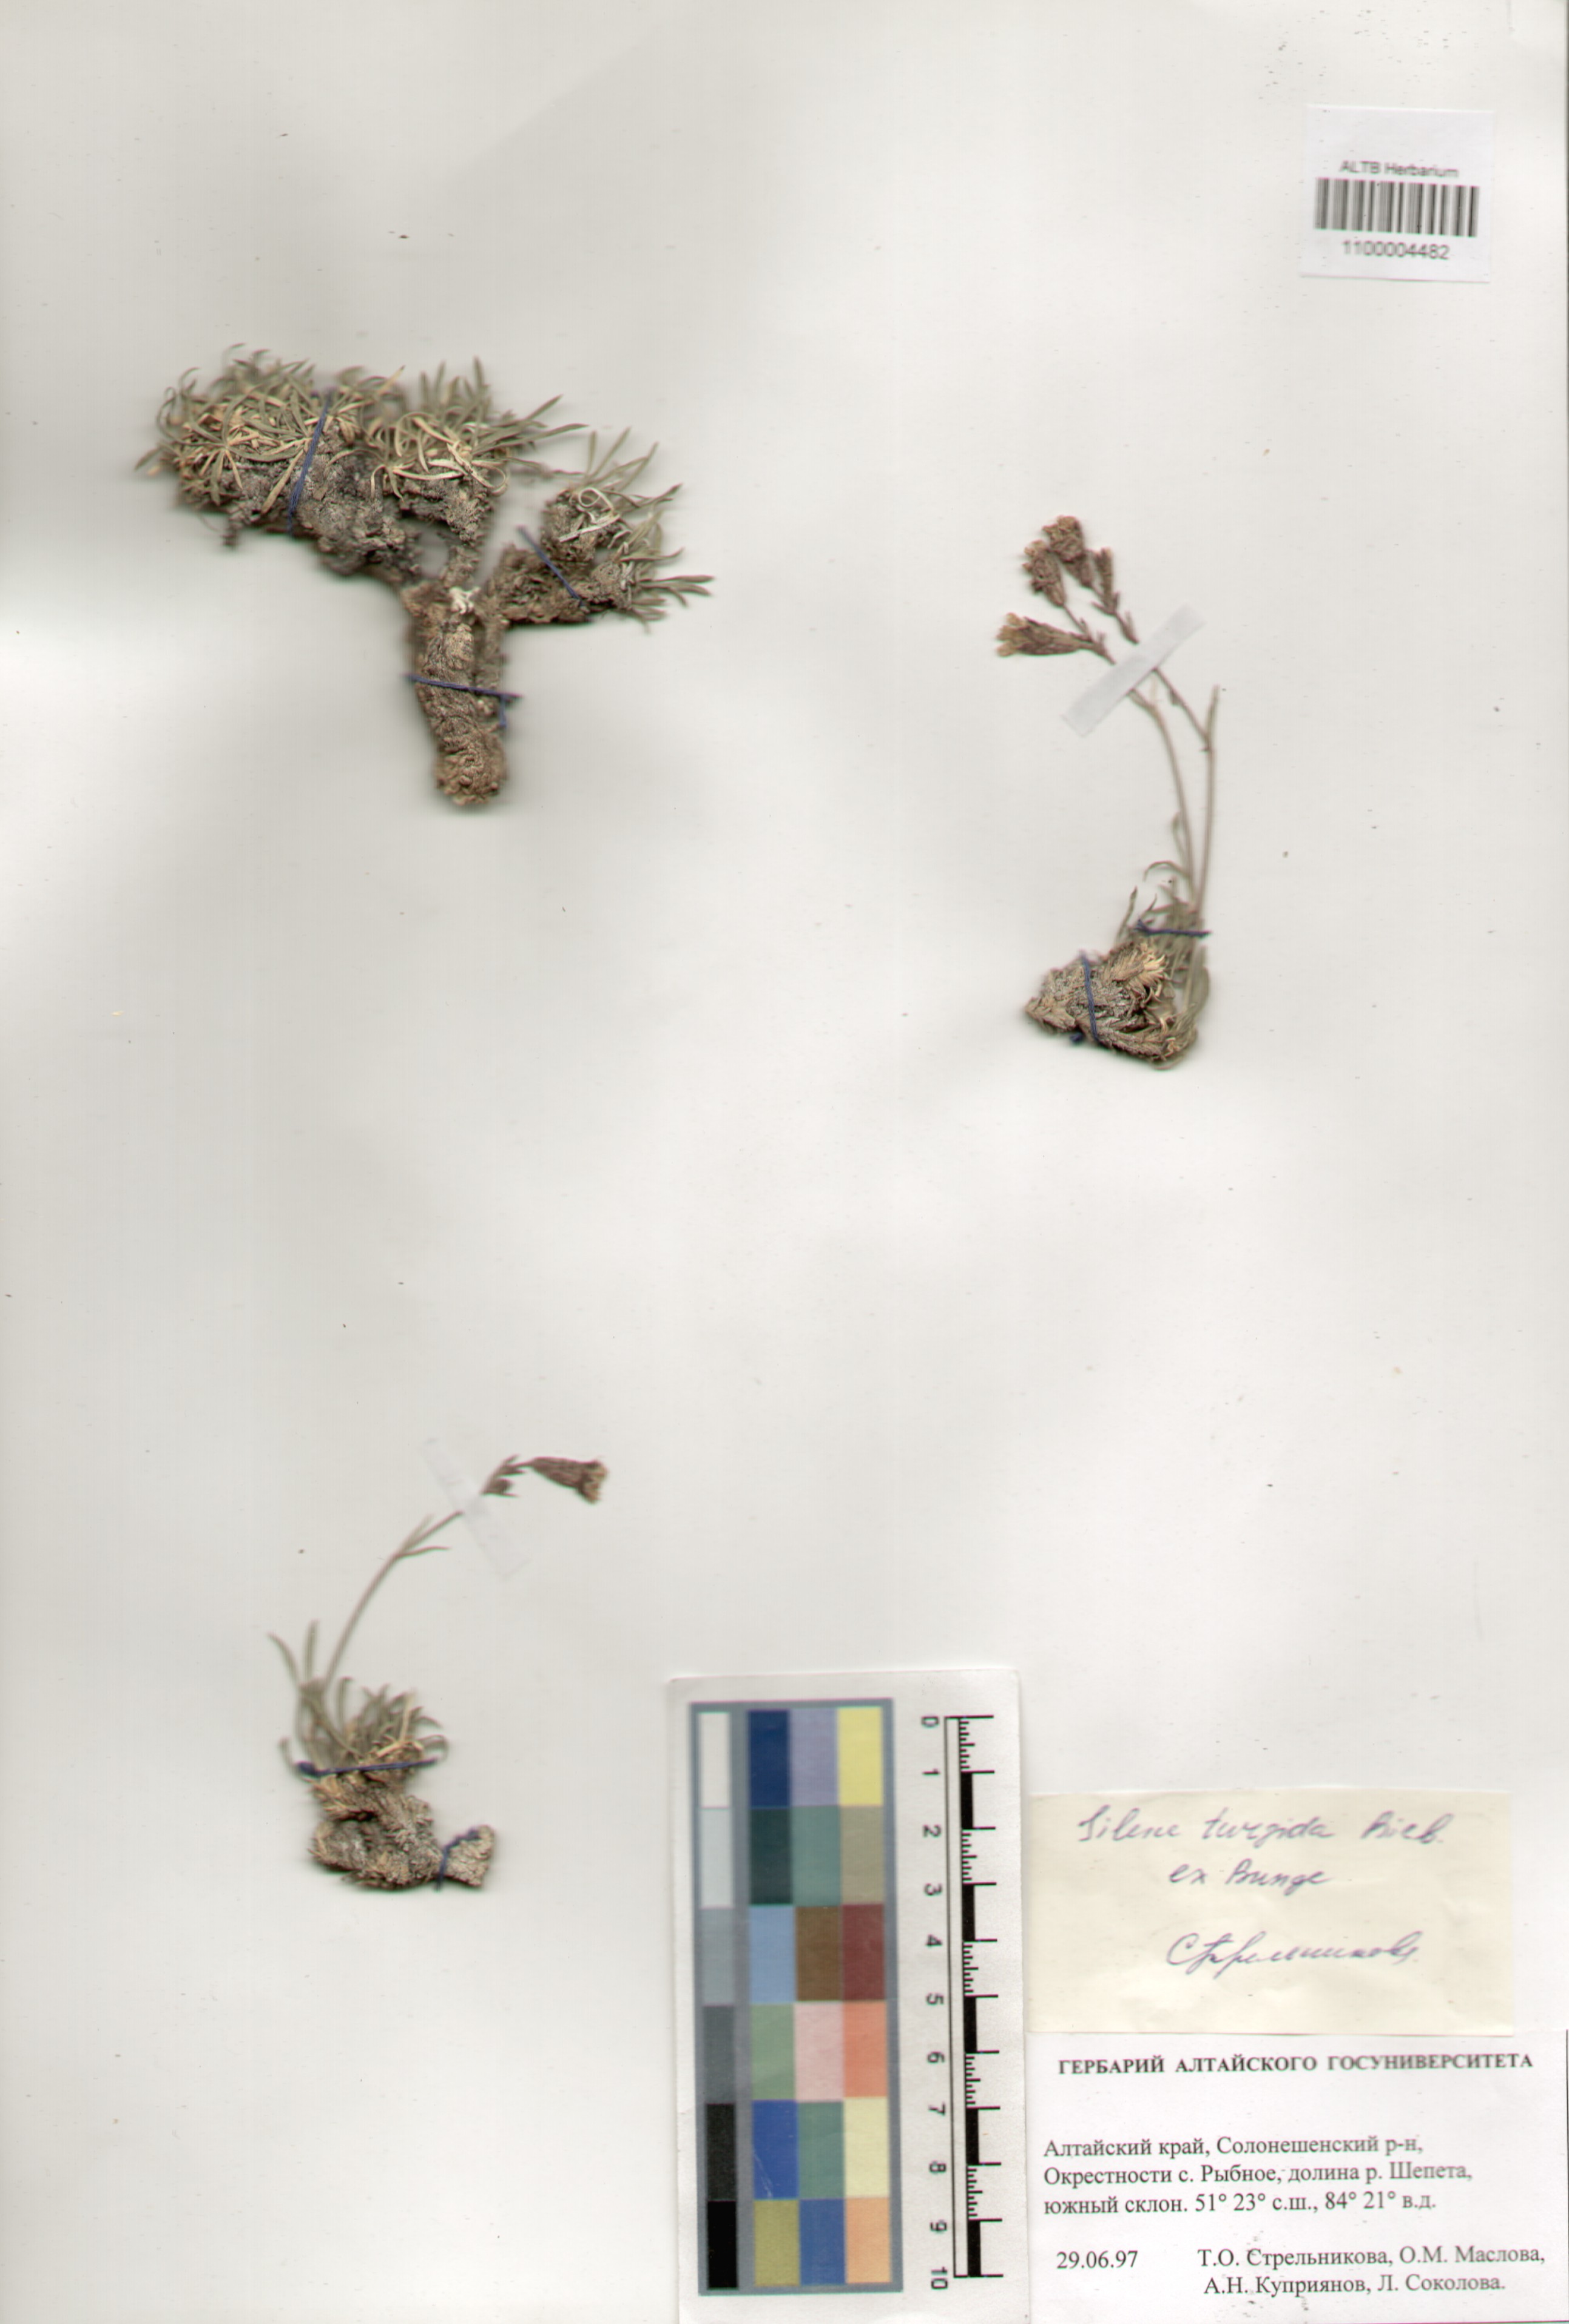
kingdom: Plantae
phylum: Tracheophyta
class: Magnoliopsida
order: Caryophyllales
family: Caryophyllaceae
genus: Silene
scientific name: Silene turgida
